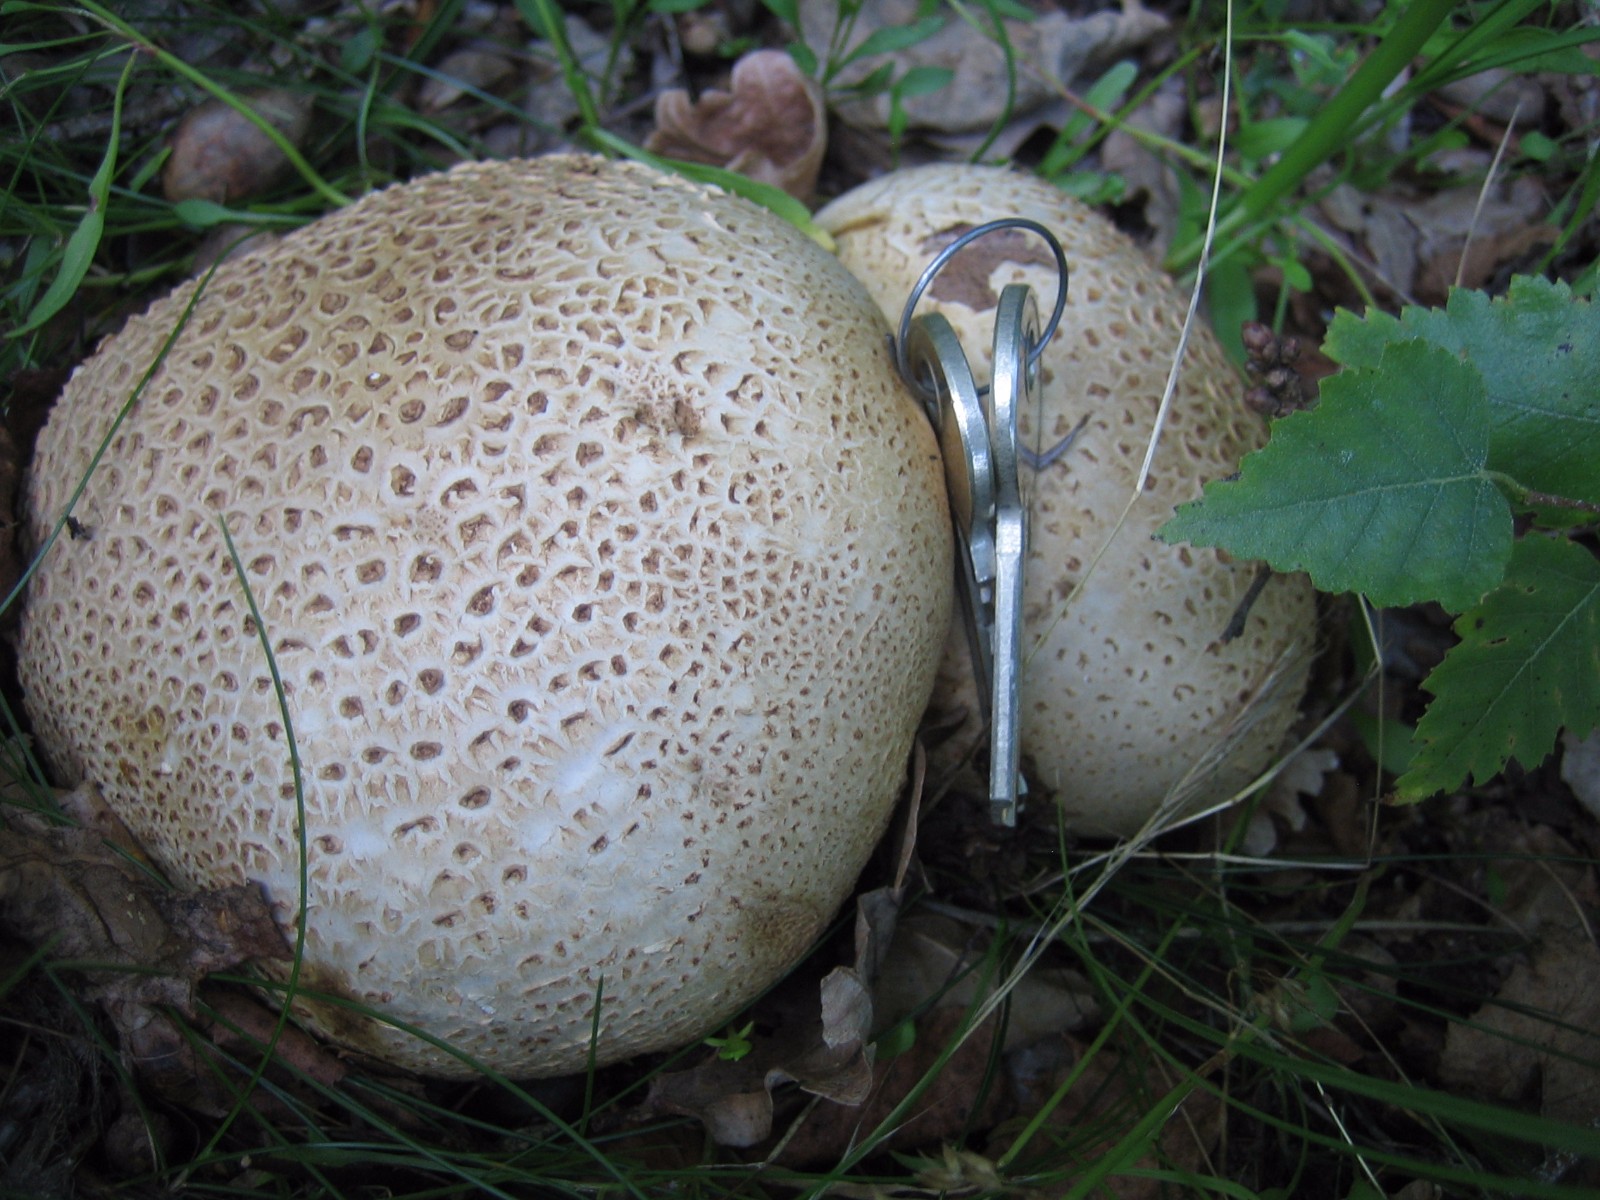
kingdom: Fungi
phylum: Basidiomycota
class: Agaricomycetes
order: Boletales
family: Sclerodermataceae
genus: Scleroderma
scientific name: Scleroderma citrinum
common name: almindelig bruskbold
